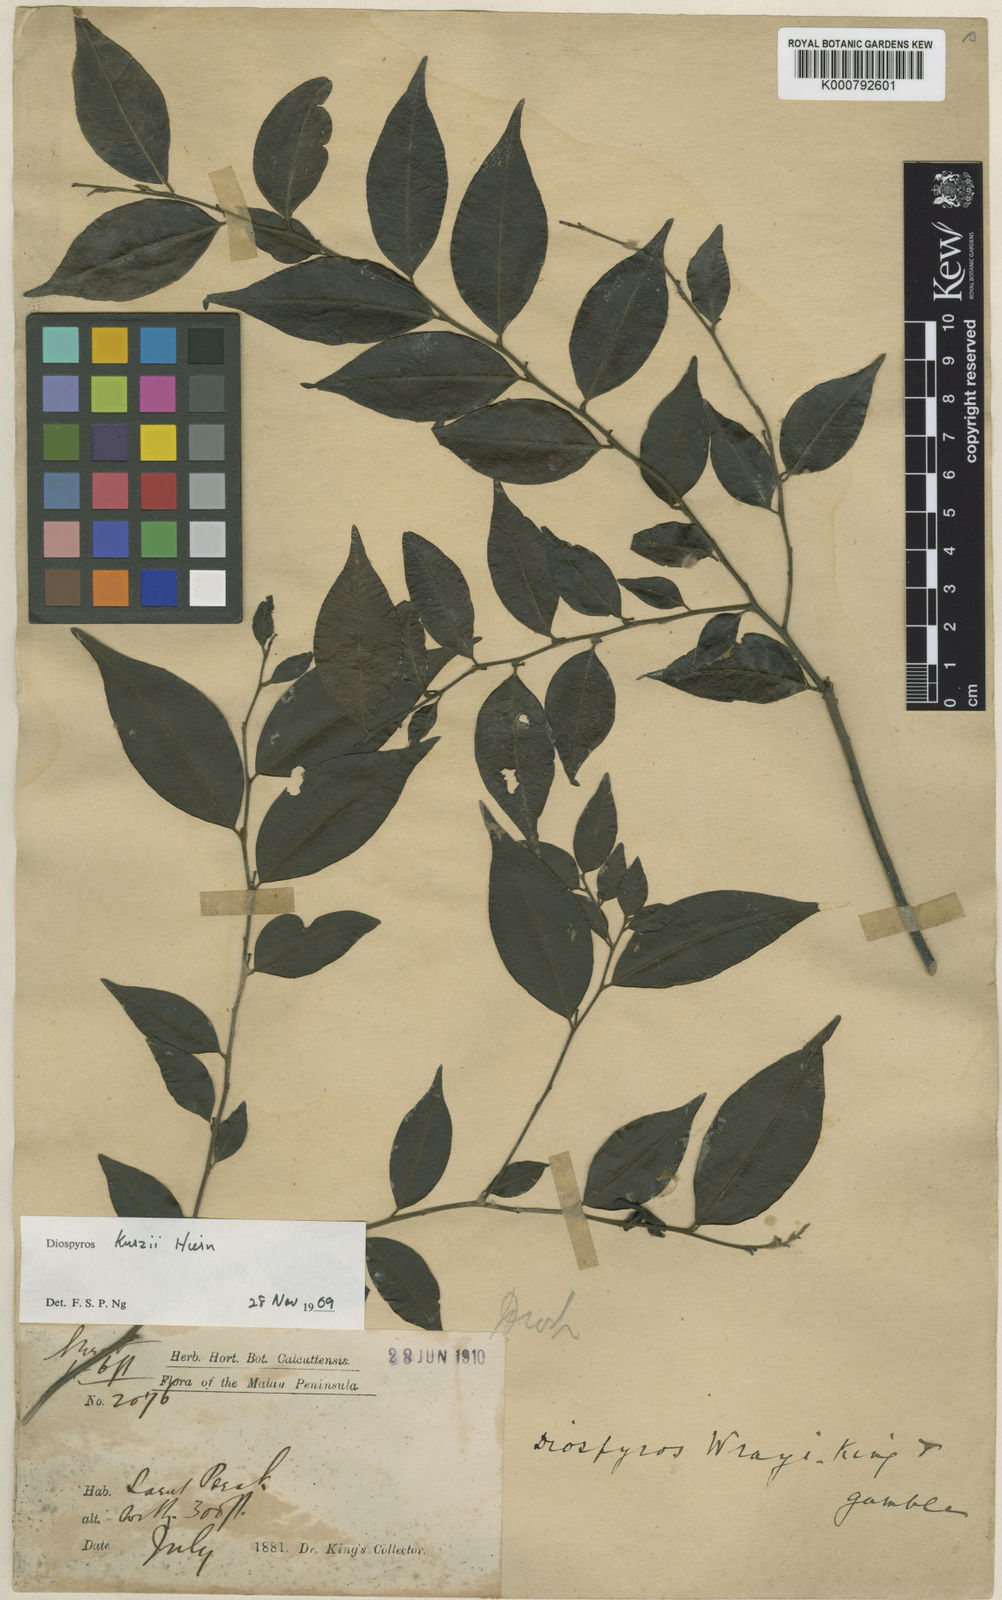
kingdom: Plantae
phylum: Tracheophyta
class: Magnoliopsida
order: Ericales
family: Ebenaceae
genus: Diospyros
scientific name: Diospyros kurzii
